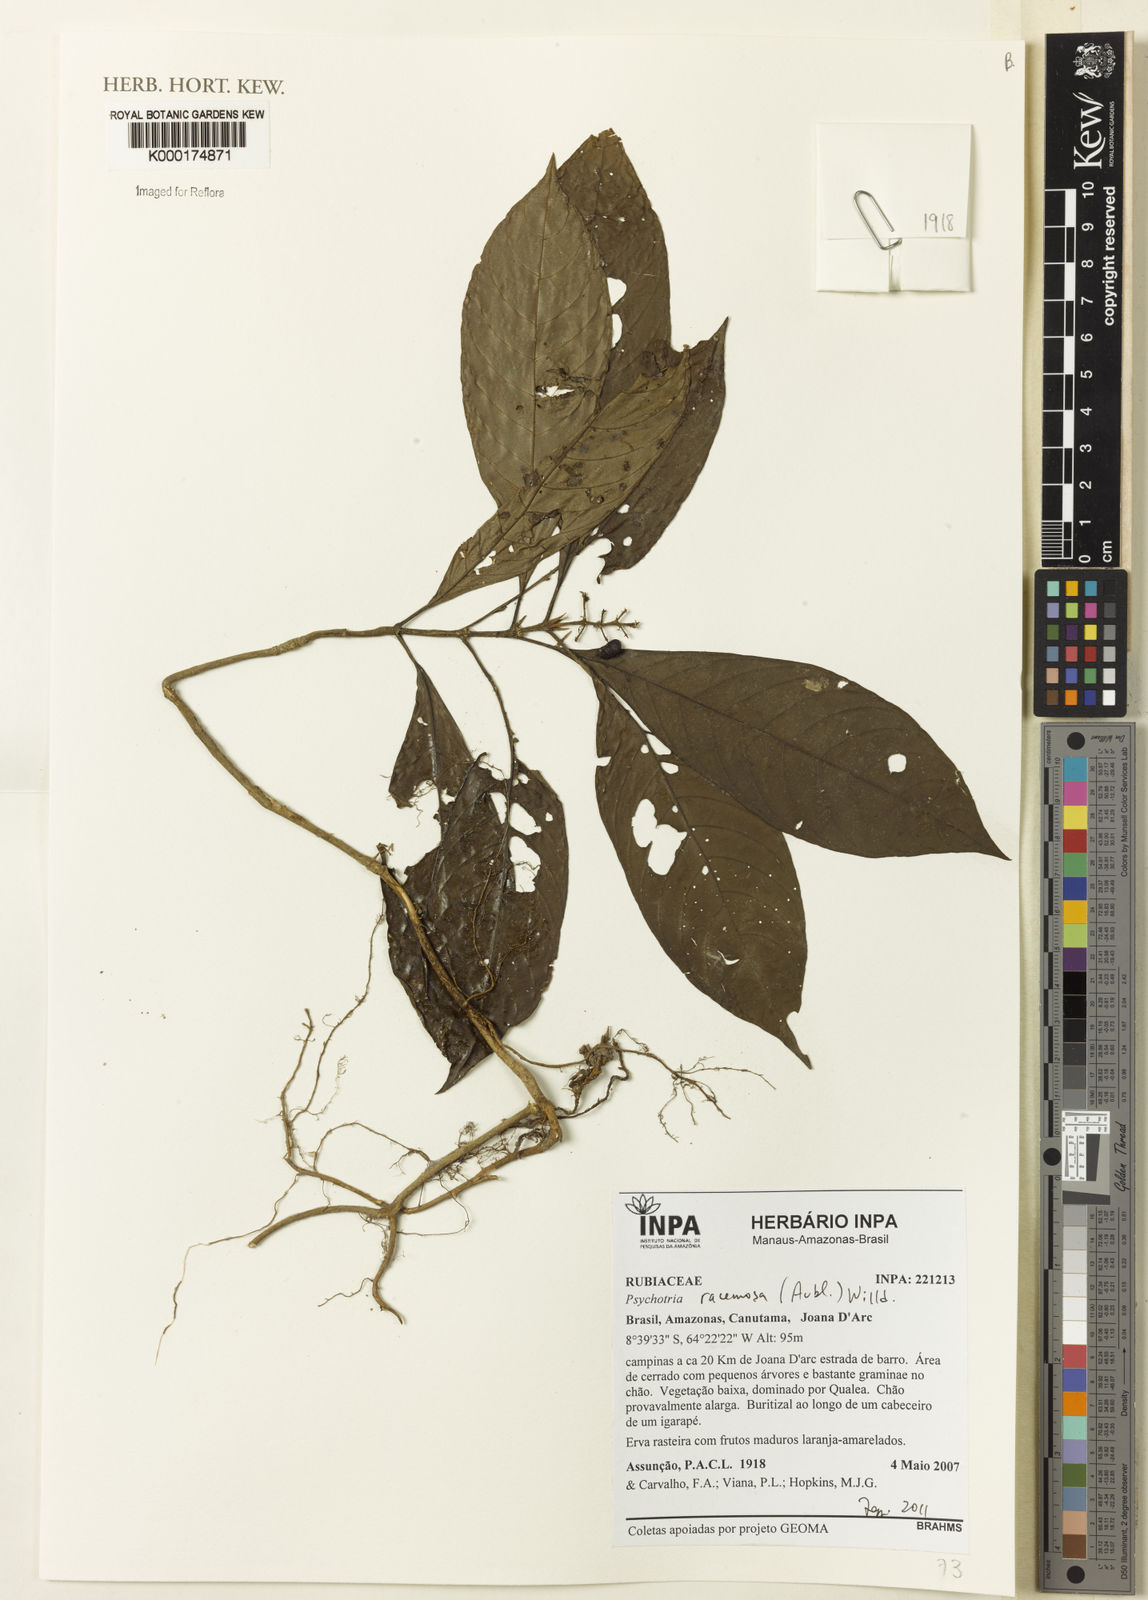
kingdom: Plantae
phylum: Tracheophyta
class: Magnoliopsida
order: Gentianales
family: Rubiaceae
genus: Palicourea
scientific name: Palicourea racemosa
